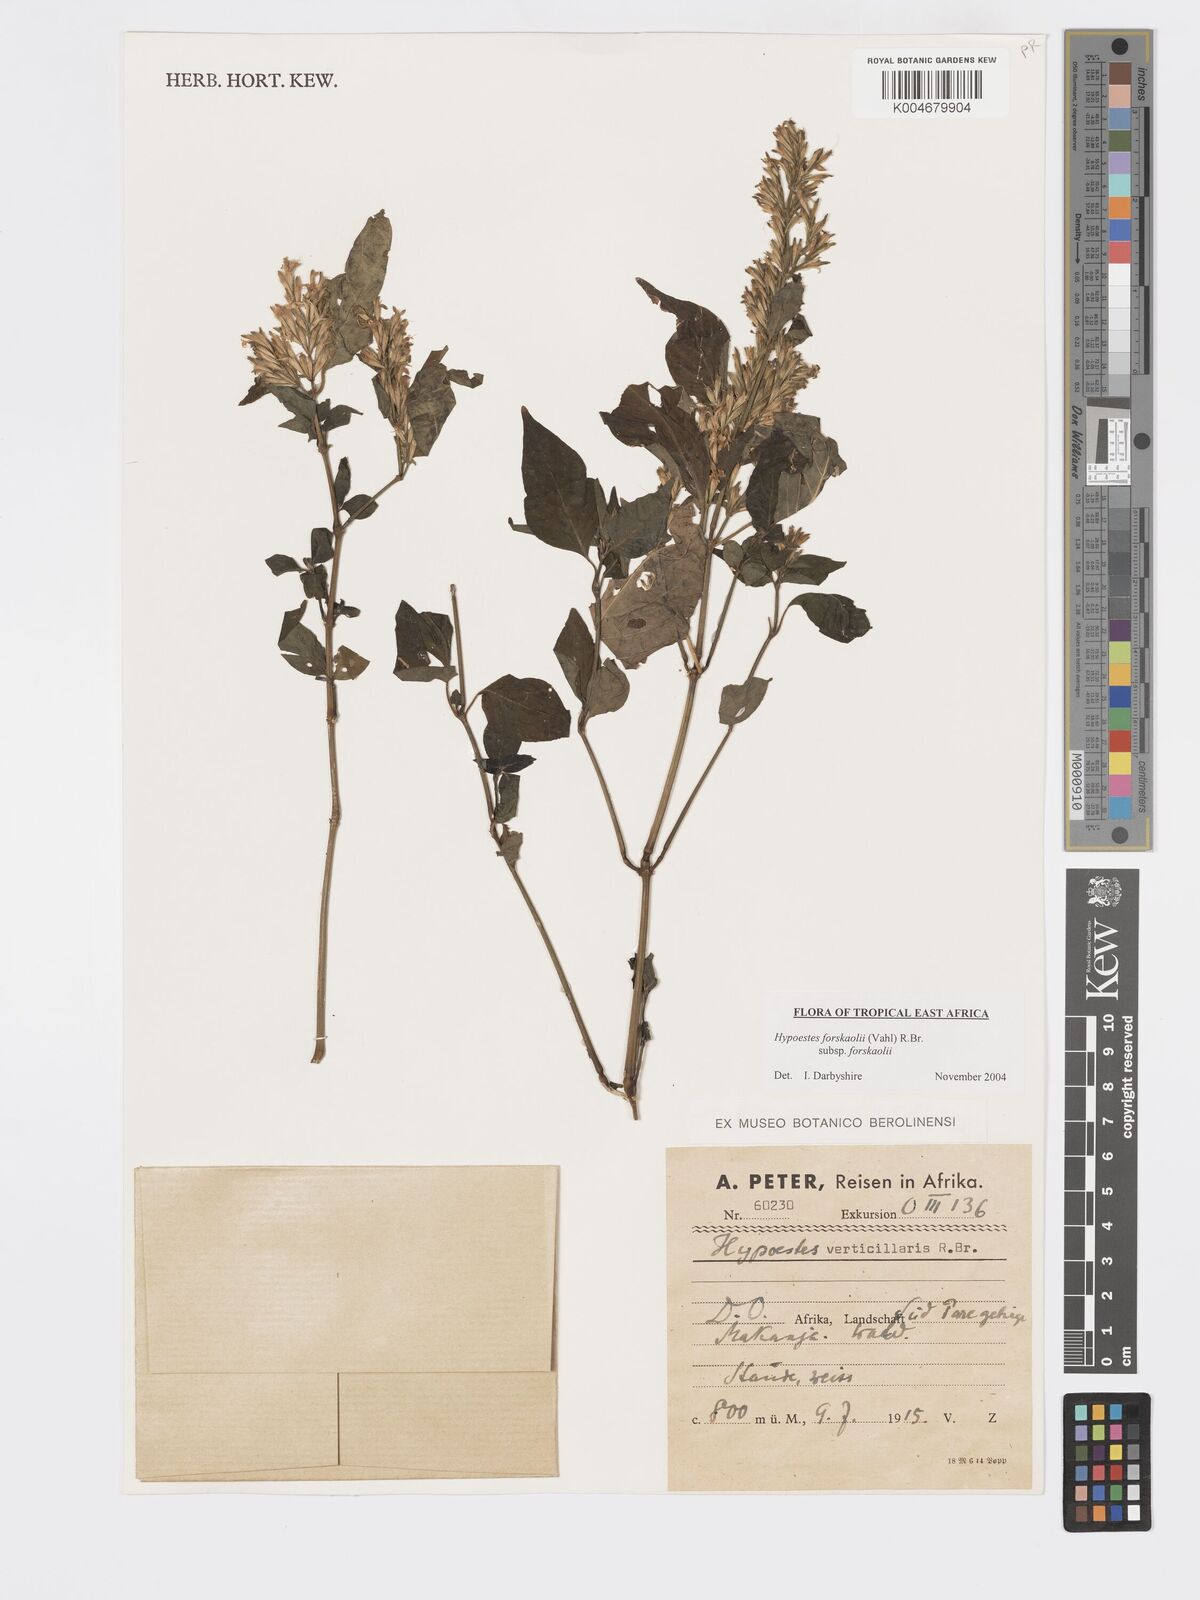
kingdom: Plantae
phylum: Tracheophyta
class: Magnoliopsida
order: Lamiales
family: Acanthaceae
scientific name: Acanthaceae
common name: Acanthaceae
